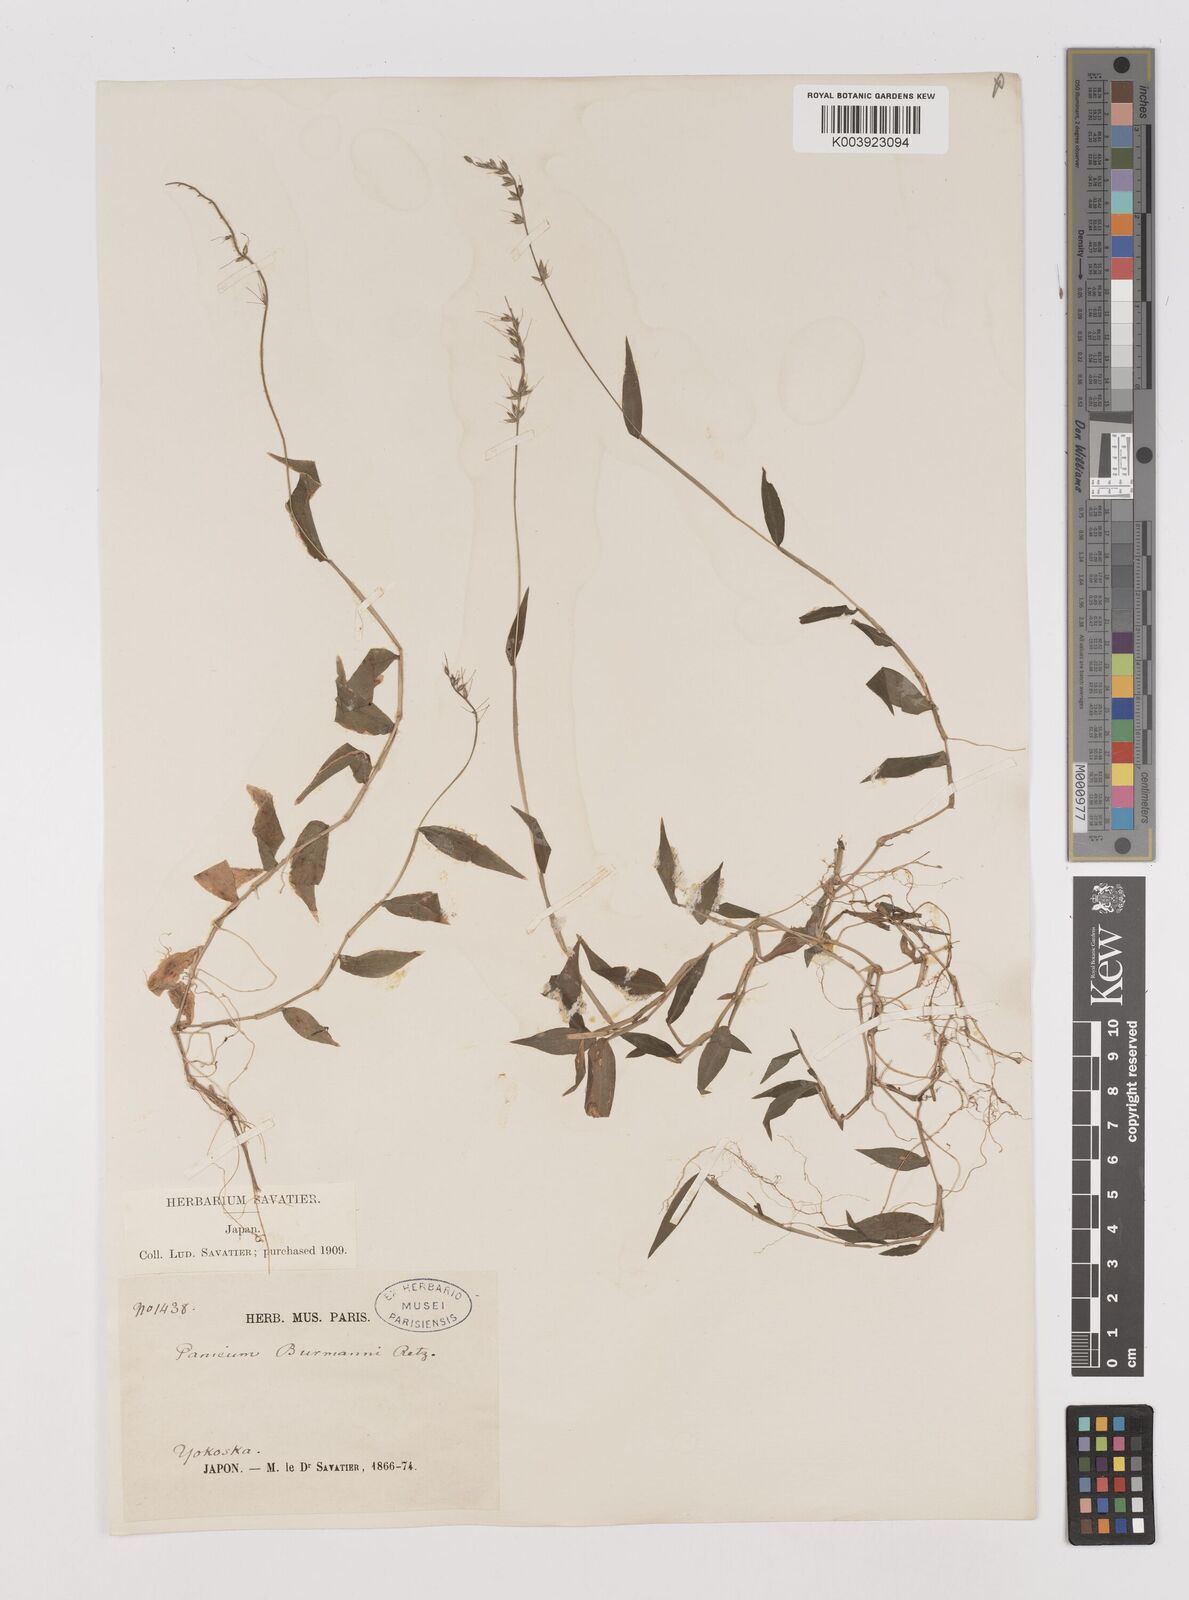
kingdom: Plantae
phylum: Tracheophyta
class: Liliopsida
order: Poales
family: Poaceae
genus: Oplismenus
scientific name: Oplismenus undulatifolius
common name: Wavyleaf basketgrass
